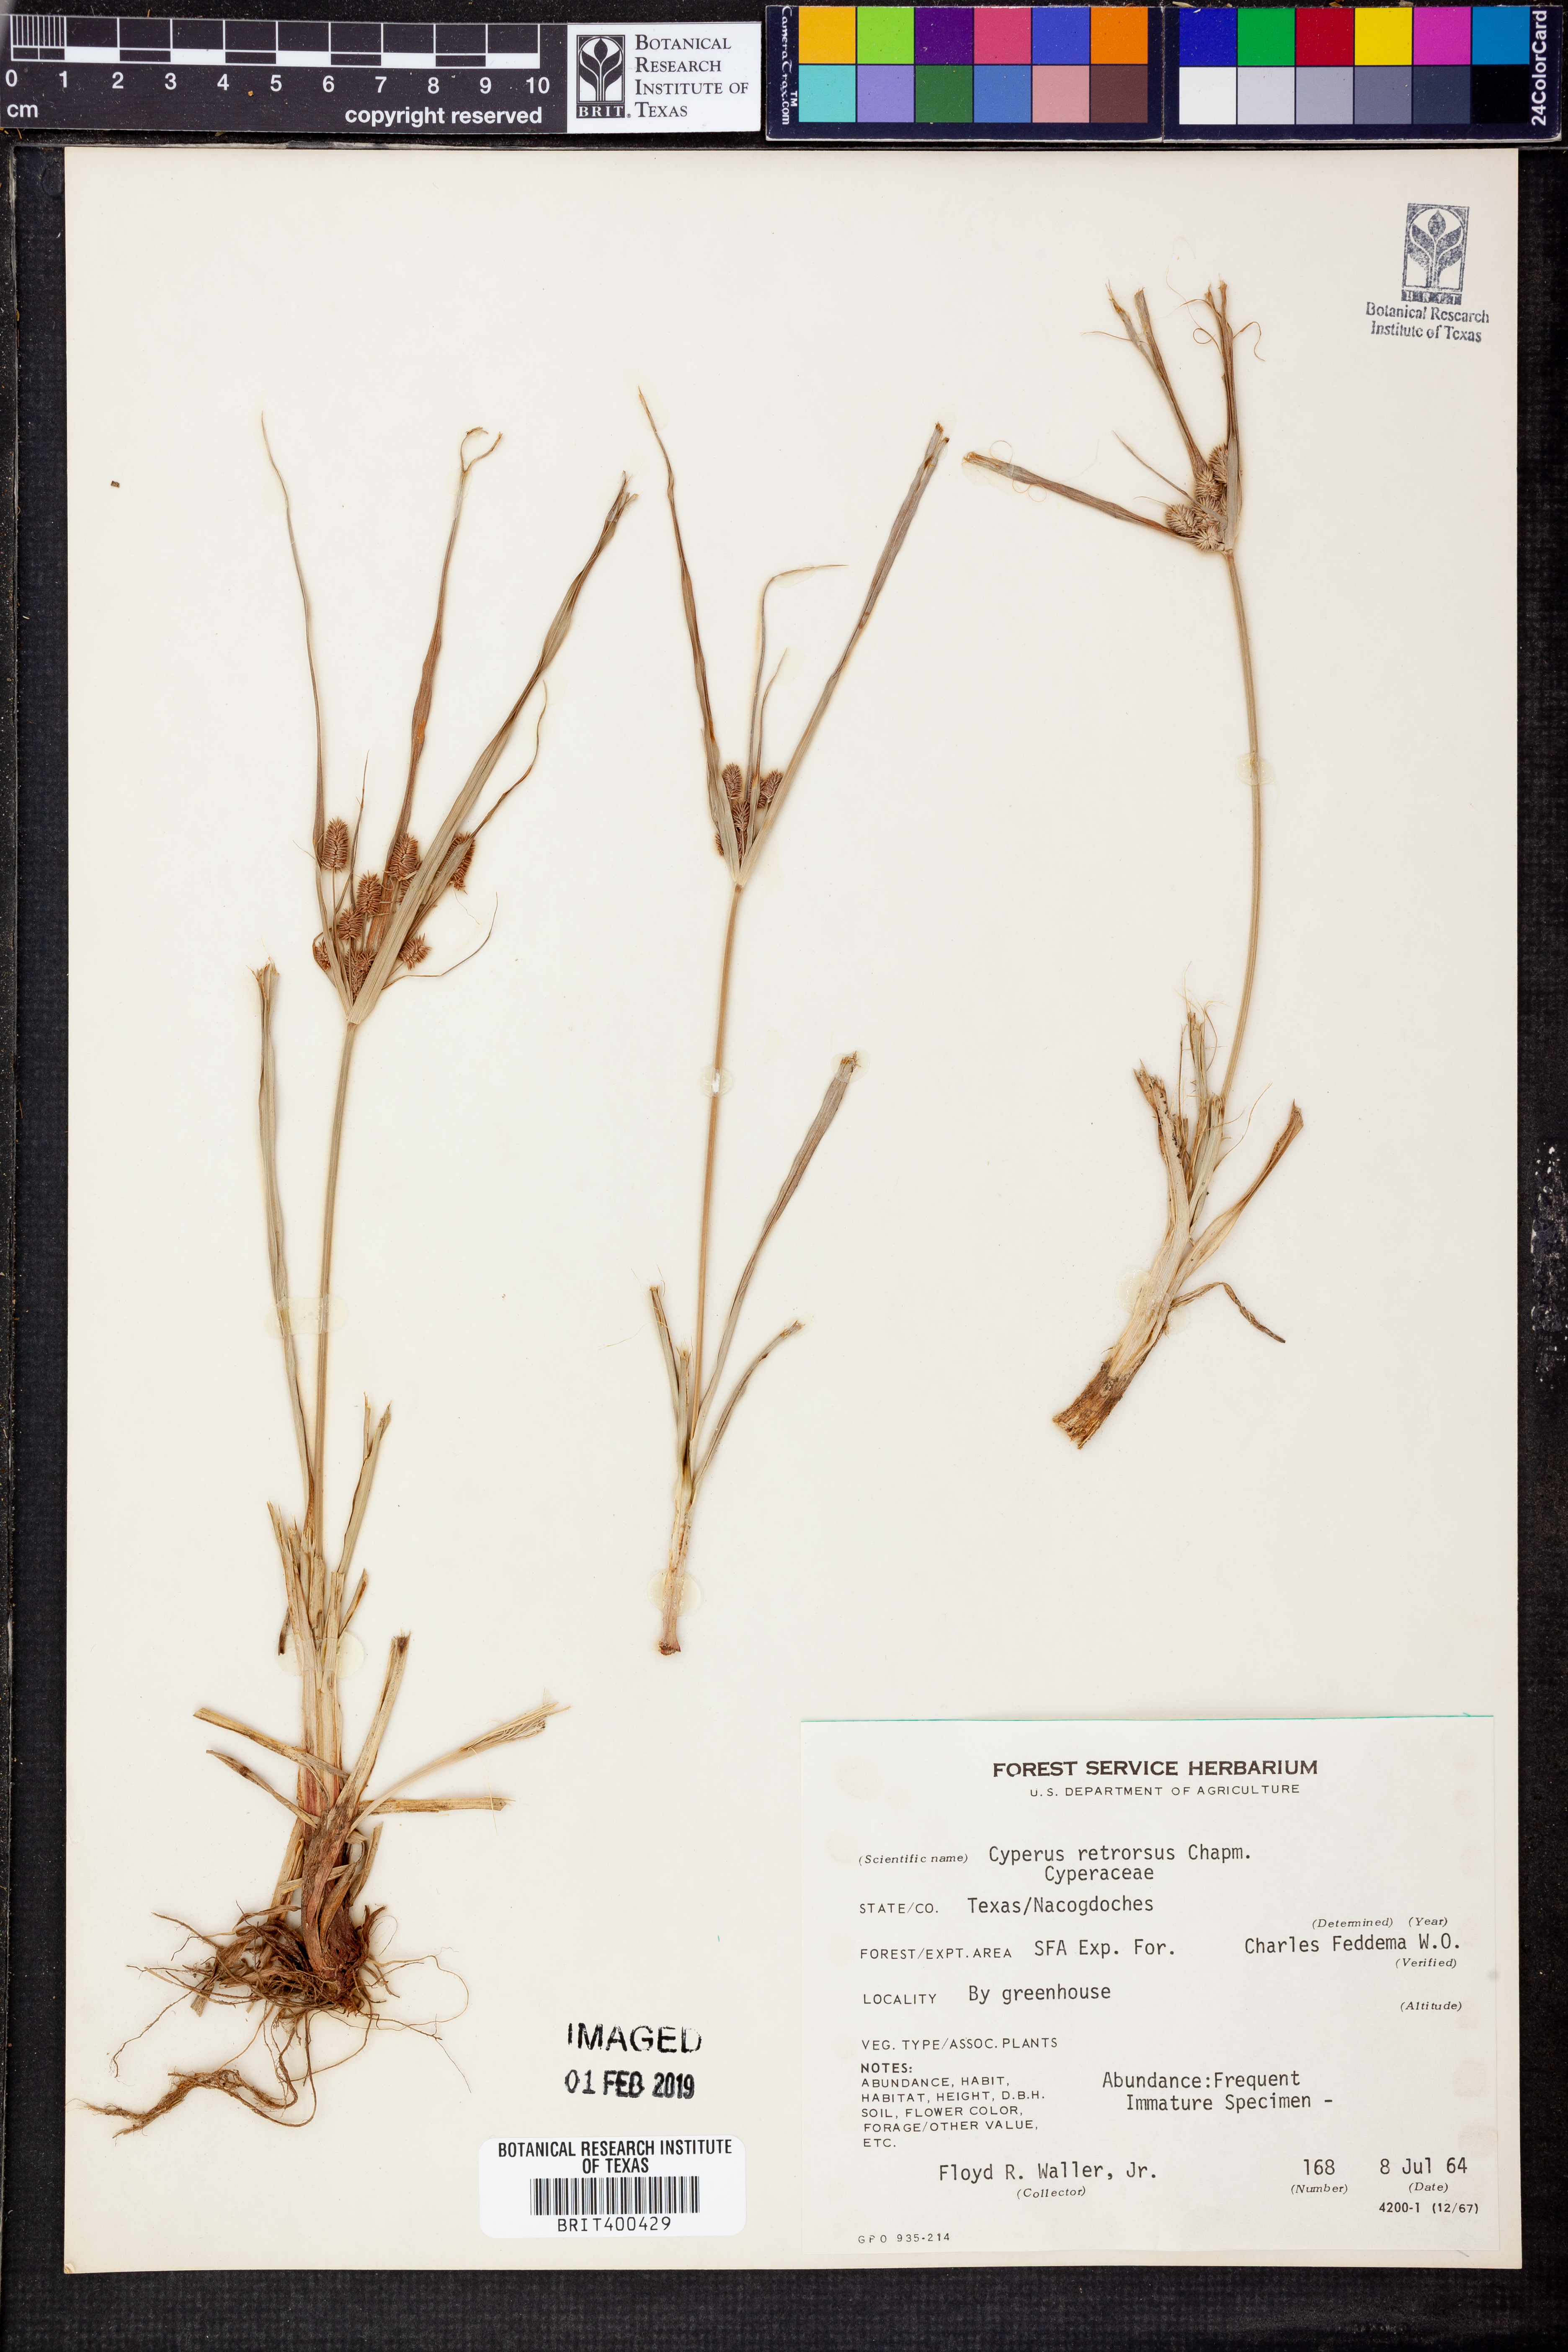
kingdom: Plantae
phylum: Tracheophyta
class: Liliopsida
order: Poales
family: Cyperaceae
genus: Cyperus
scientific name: Cyperus retrorsus
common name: Pinebarren flat sedge
